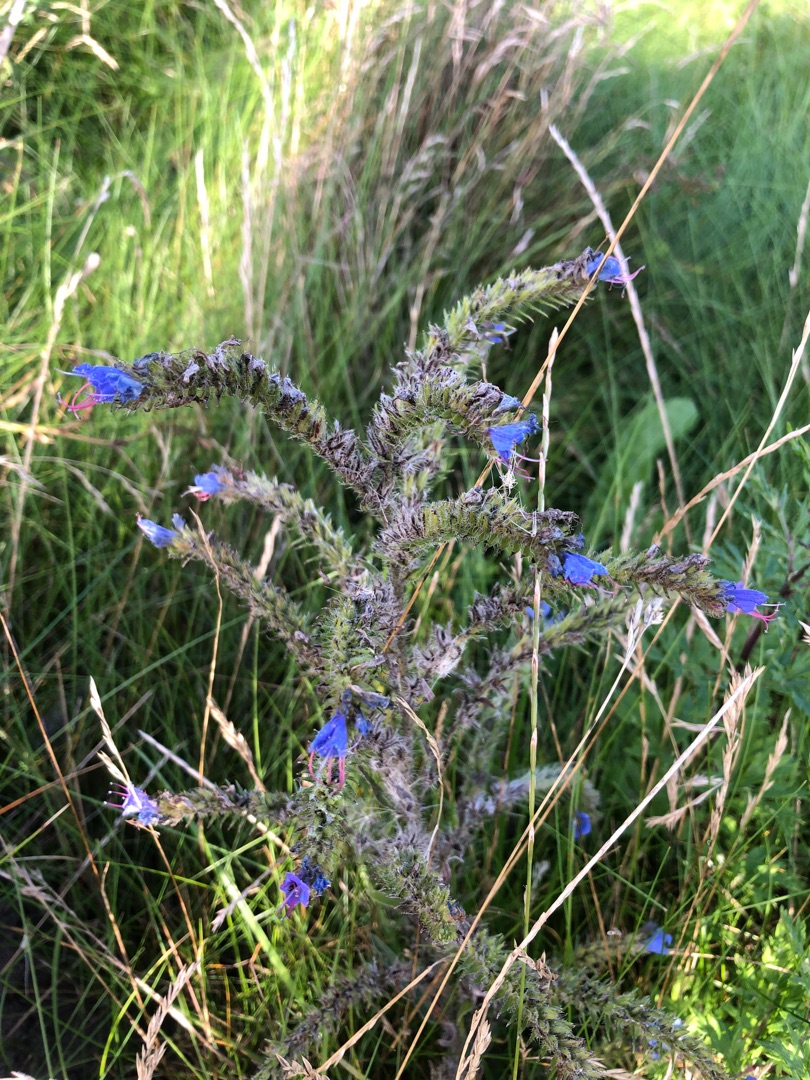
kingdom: Plantae
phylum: Tracheophyta
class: Magnoliopsida
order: Boraginales
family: Boraginaceae
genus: Echium
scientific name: Echium vulgare
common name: Slangehoved
